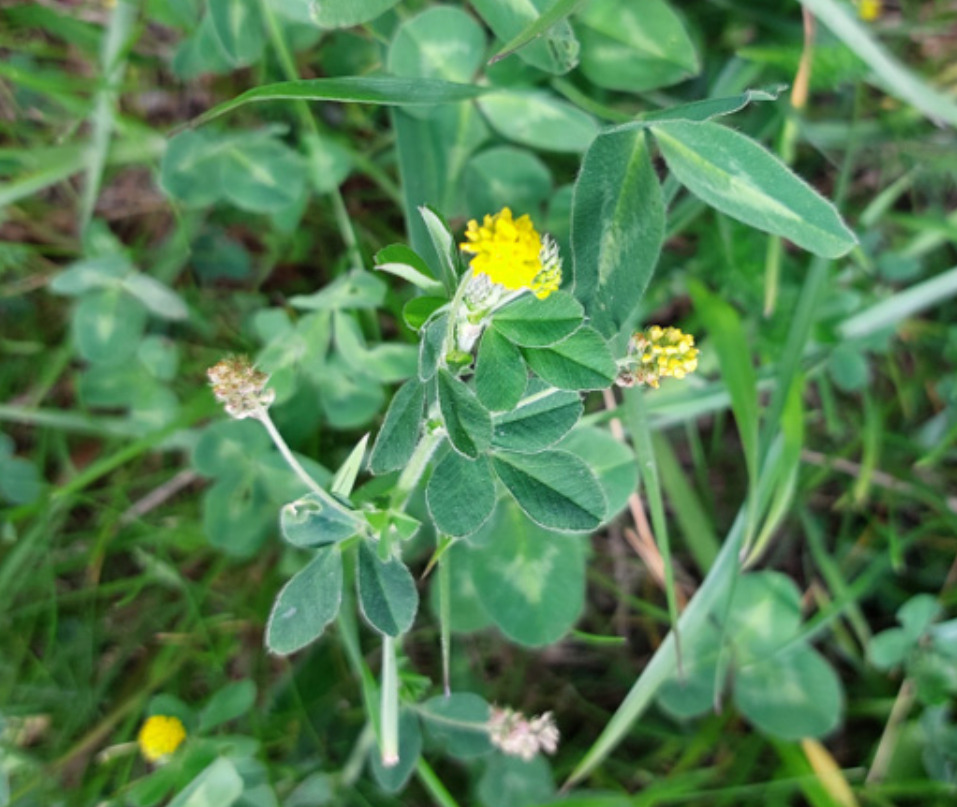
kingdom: Plantae
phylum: Tracheophyta
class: Magnoliopsida
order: Fabales
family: Fabaceae
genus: Medicago
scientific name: Medicago lupulina
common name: Humle-sneglebælg
